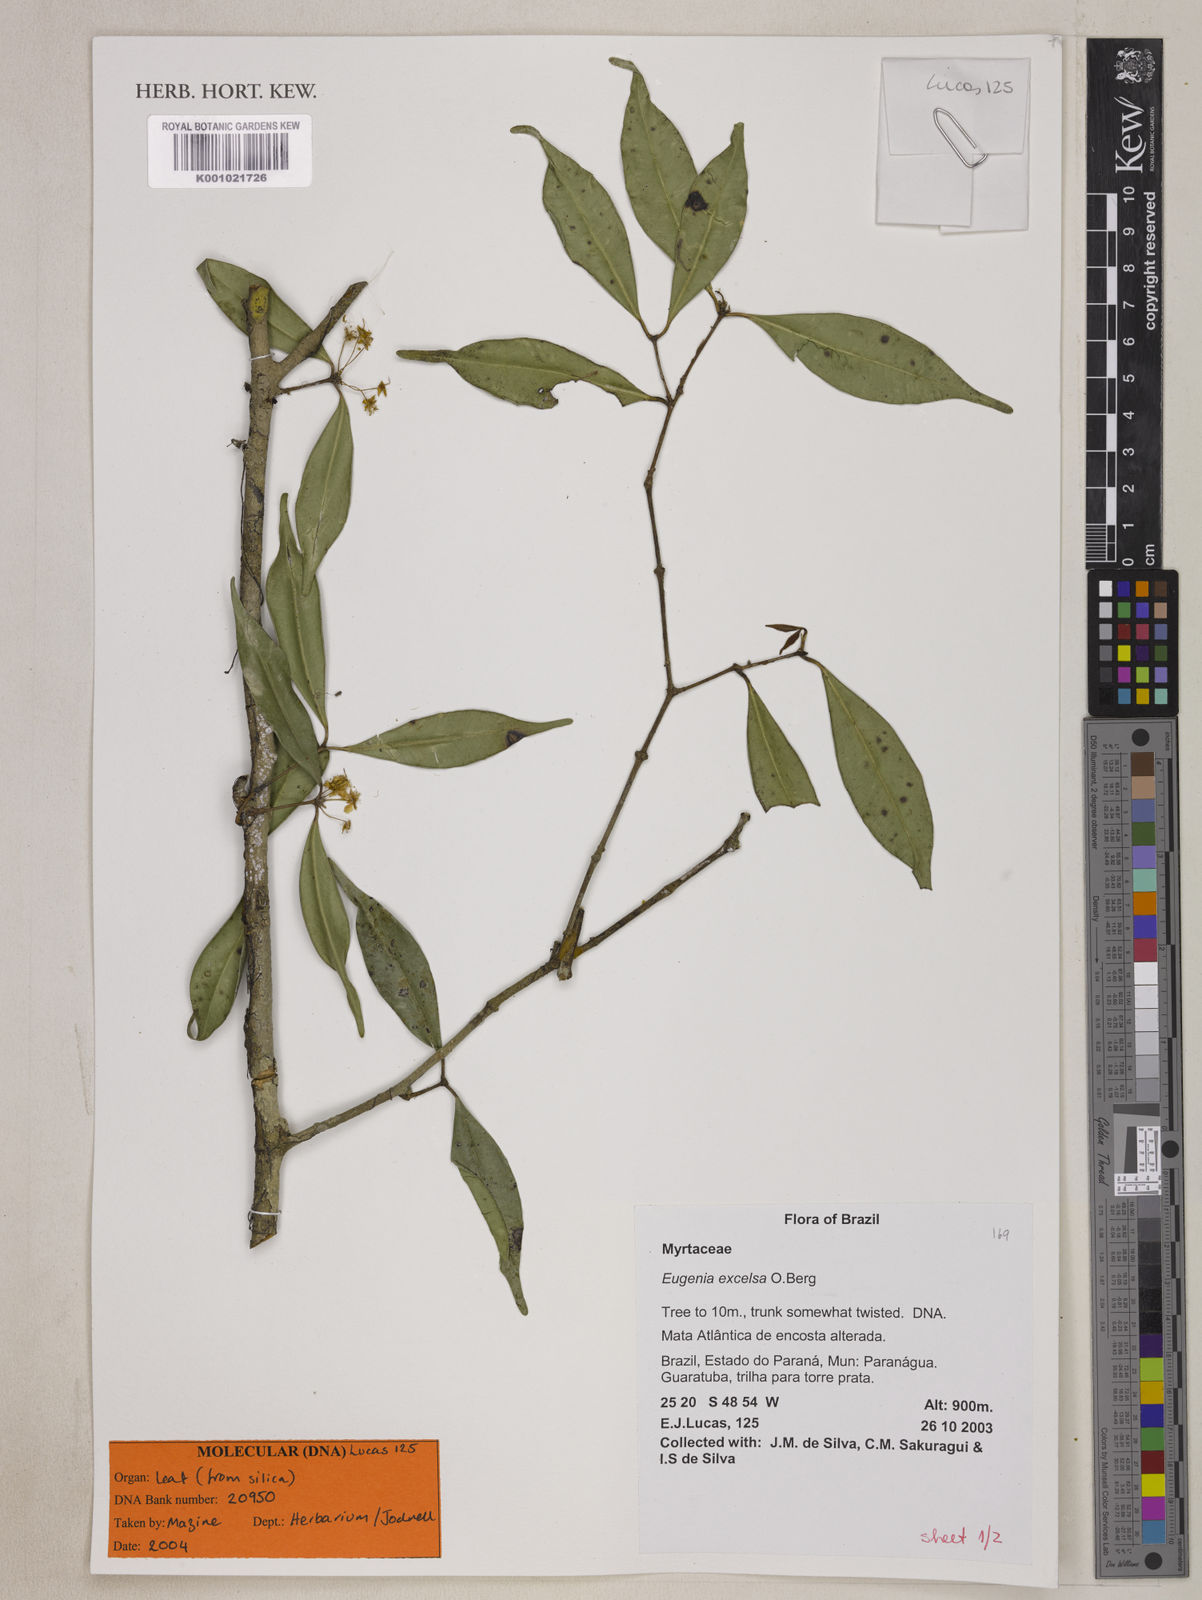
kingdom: Plantae
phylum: Tracheophyta
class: Magnoliopsida
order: Myrtales
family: Myrtaceae
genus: Eugenia
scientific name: Eugenia excelsa
